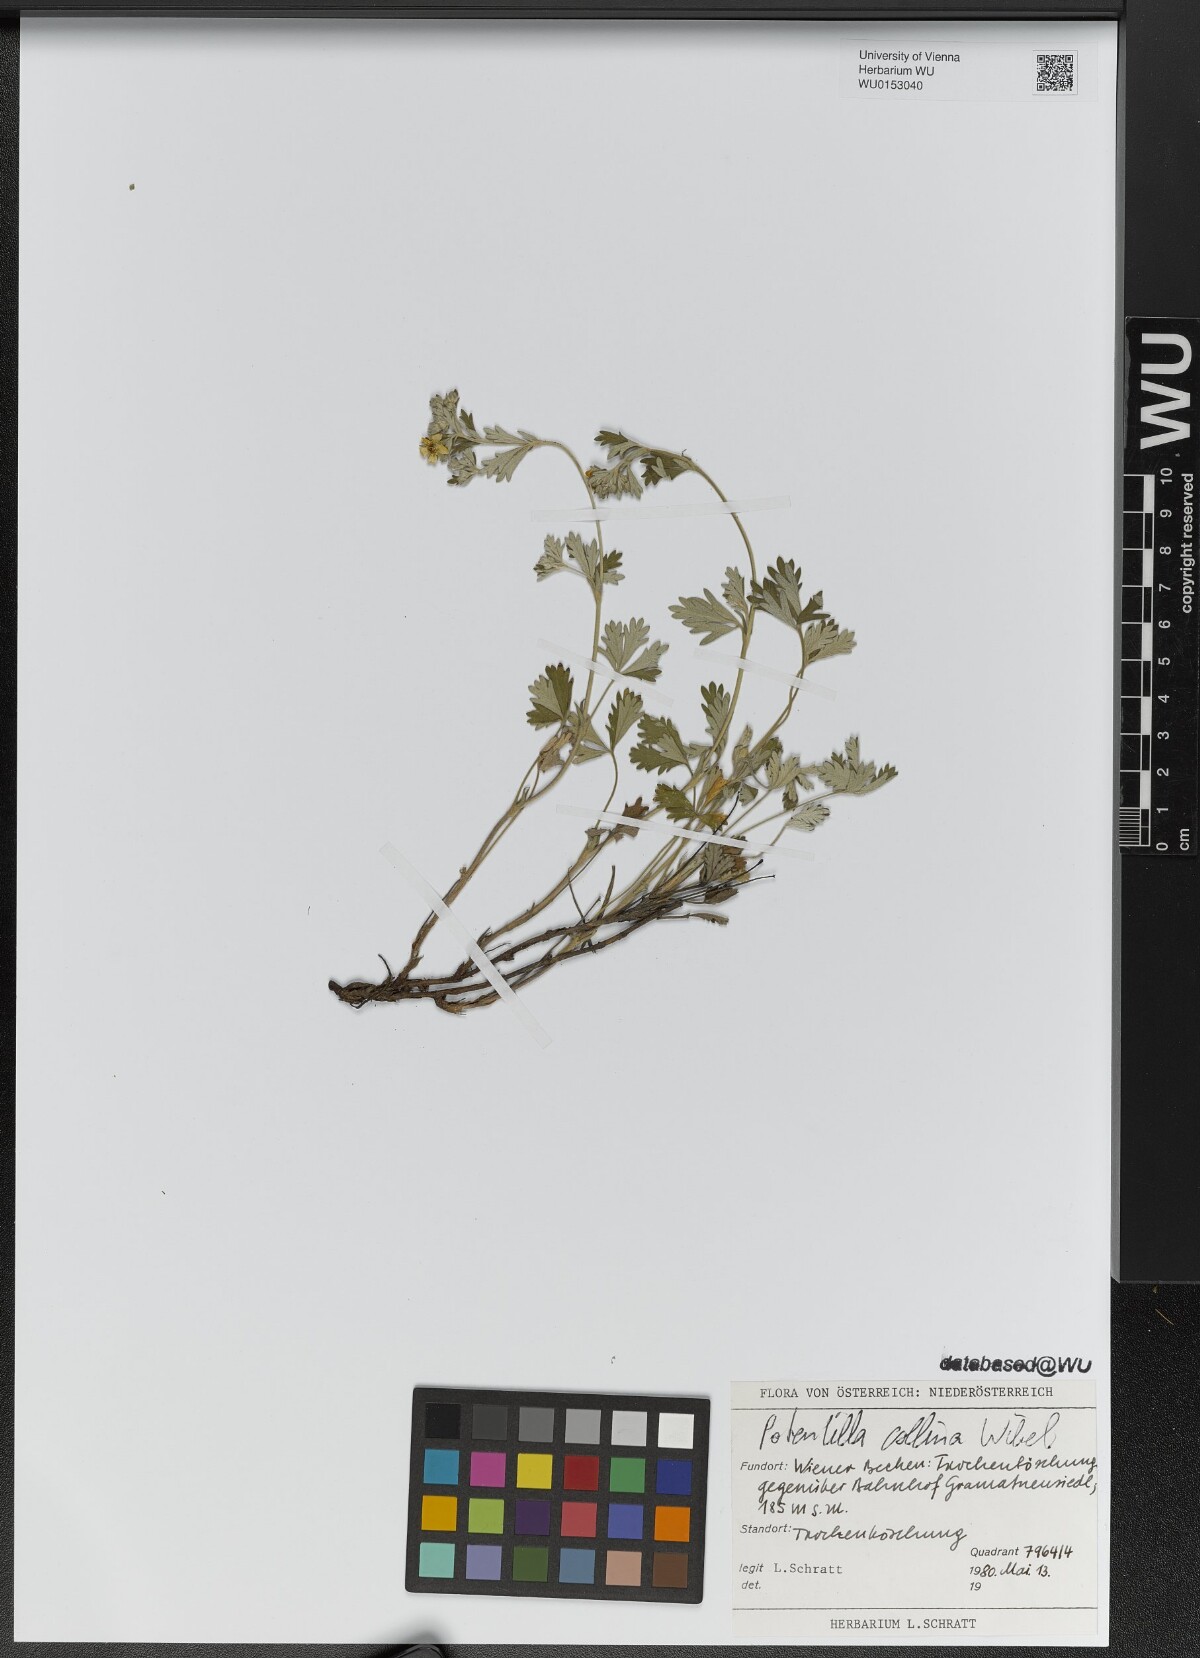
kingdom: Plantae
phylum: Tracheophyta
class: Magnoliopsida
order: Rosales
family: Rosaceae
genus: Potentilla
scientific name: Potentilla collina
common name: Palmleaf cinquefoil
